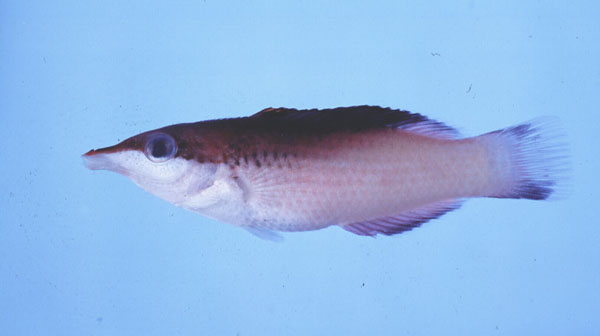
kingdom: Animalia
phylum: Chordata
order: Perciformes
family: Labridae
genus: Gomphosus
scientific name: Gomphosus caeruleus
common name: Bird wrasse
